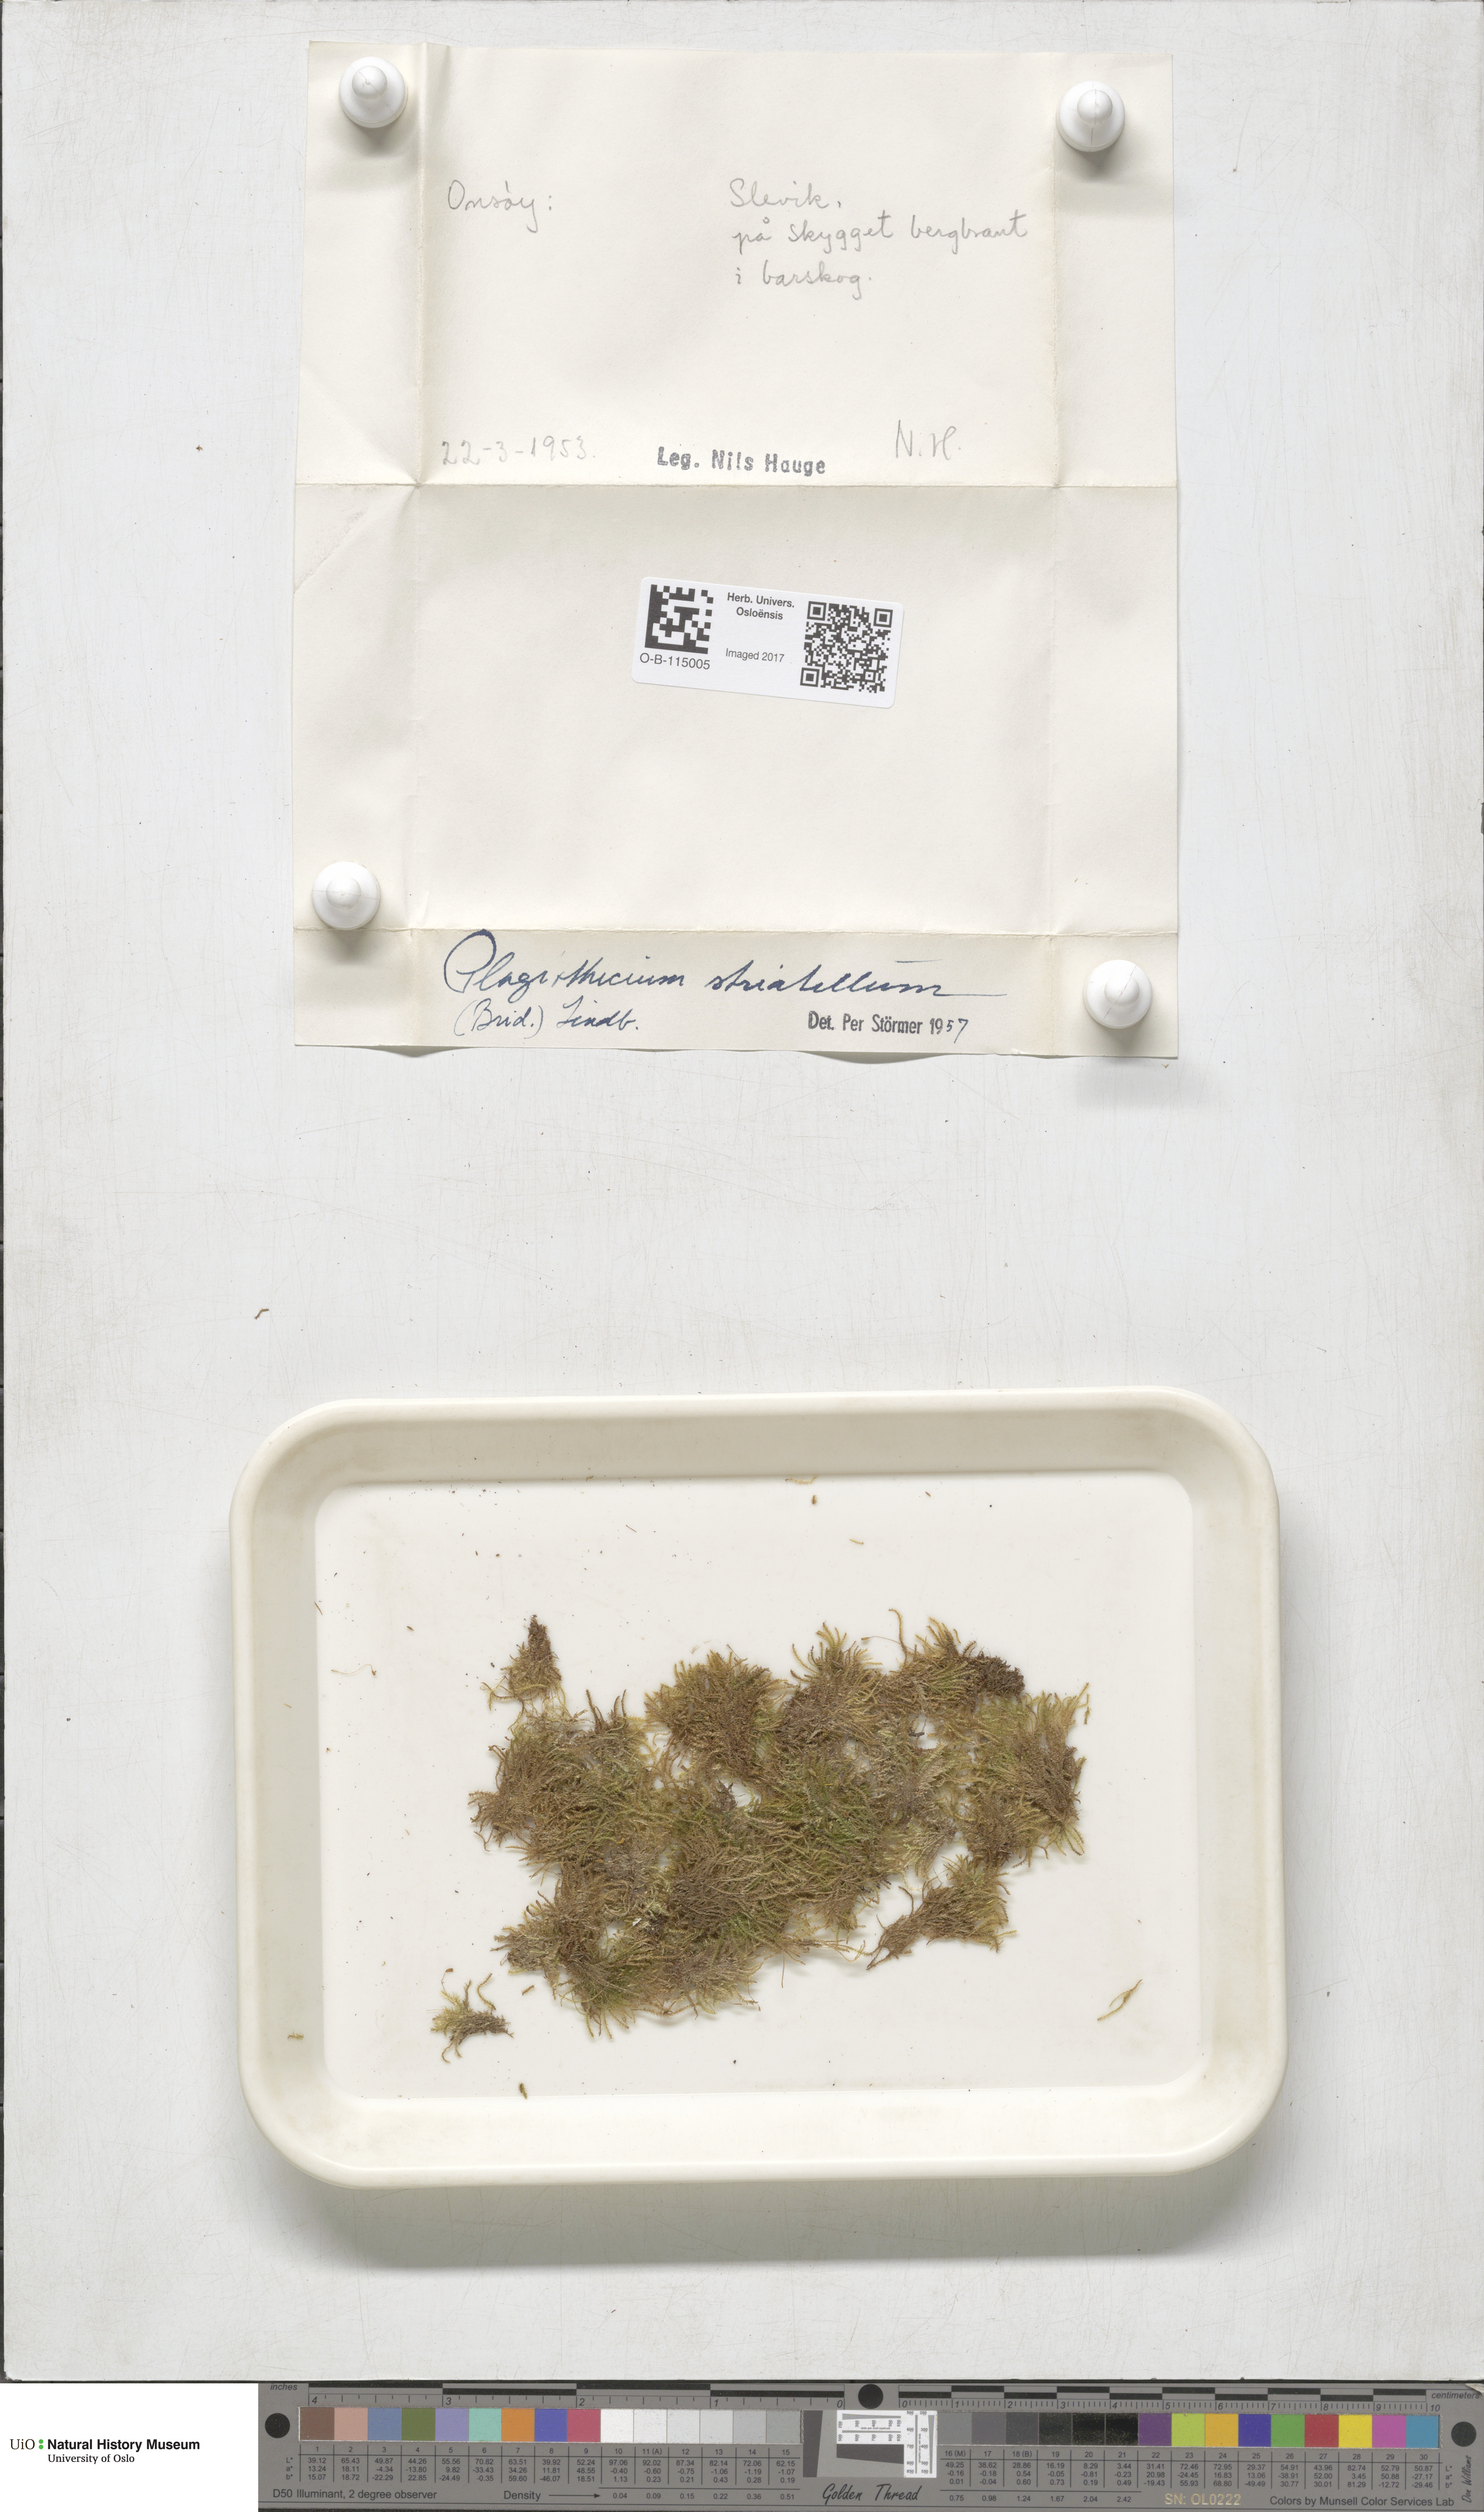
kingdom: Plantae
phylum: Bryophyta
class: Bryopsida
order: Hypnales
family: Plagiotheciaceae
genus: Herzogiella
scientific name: Herzogiella striatella
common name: Muhlenbeck's feather-moss
